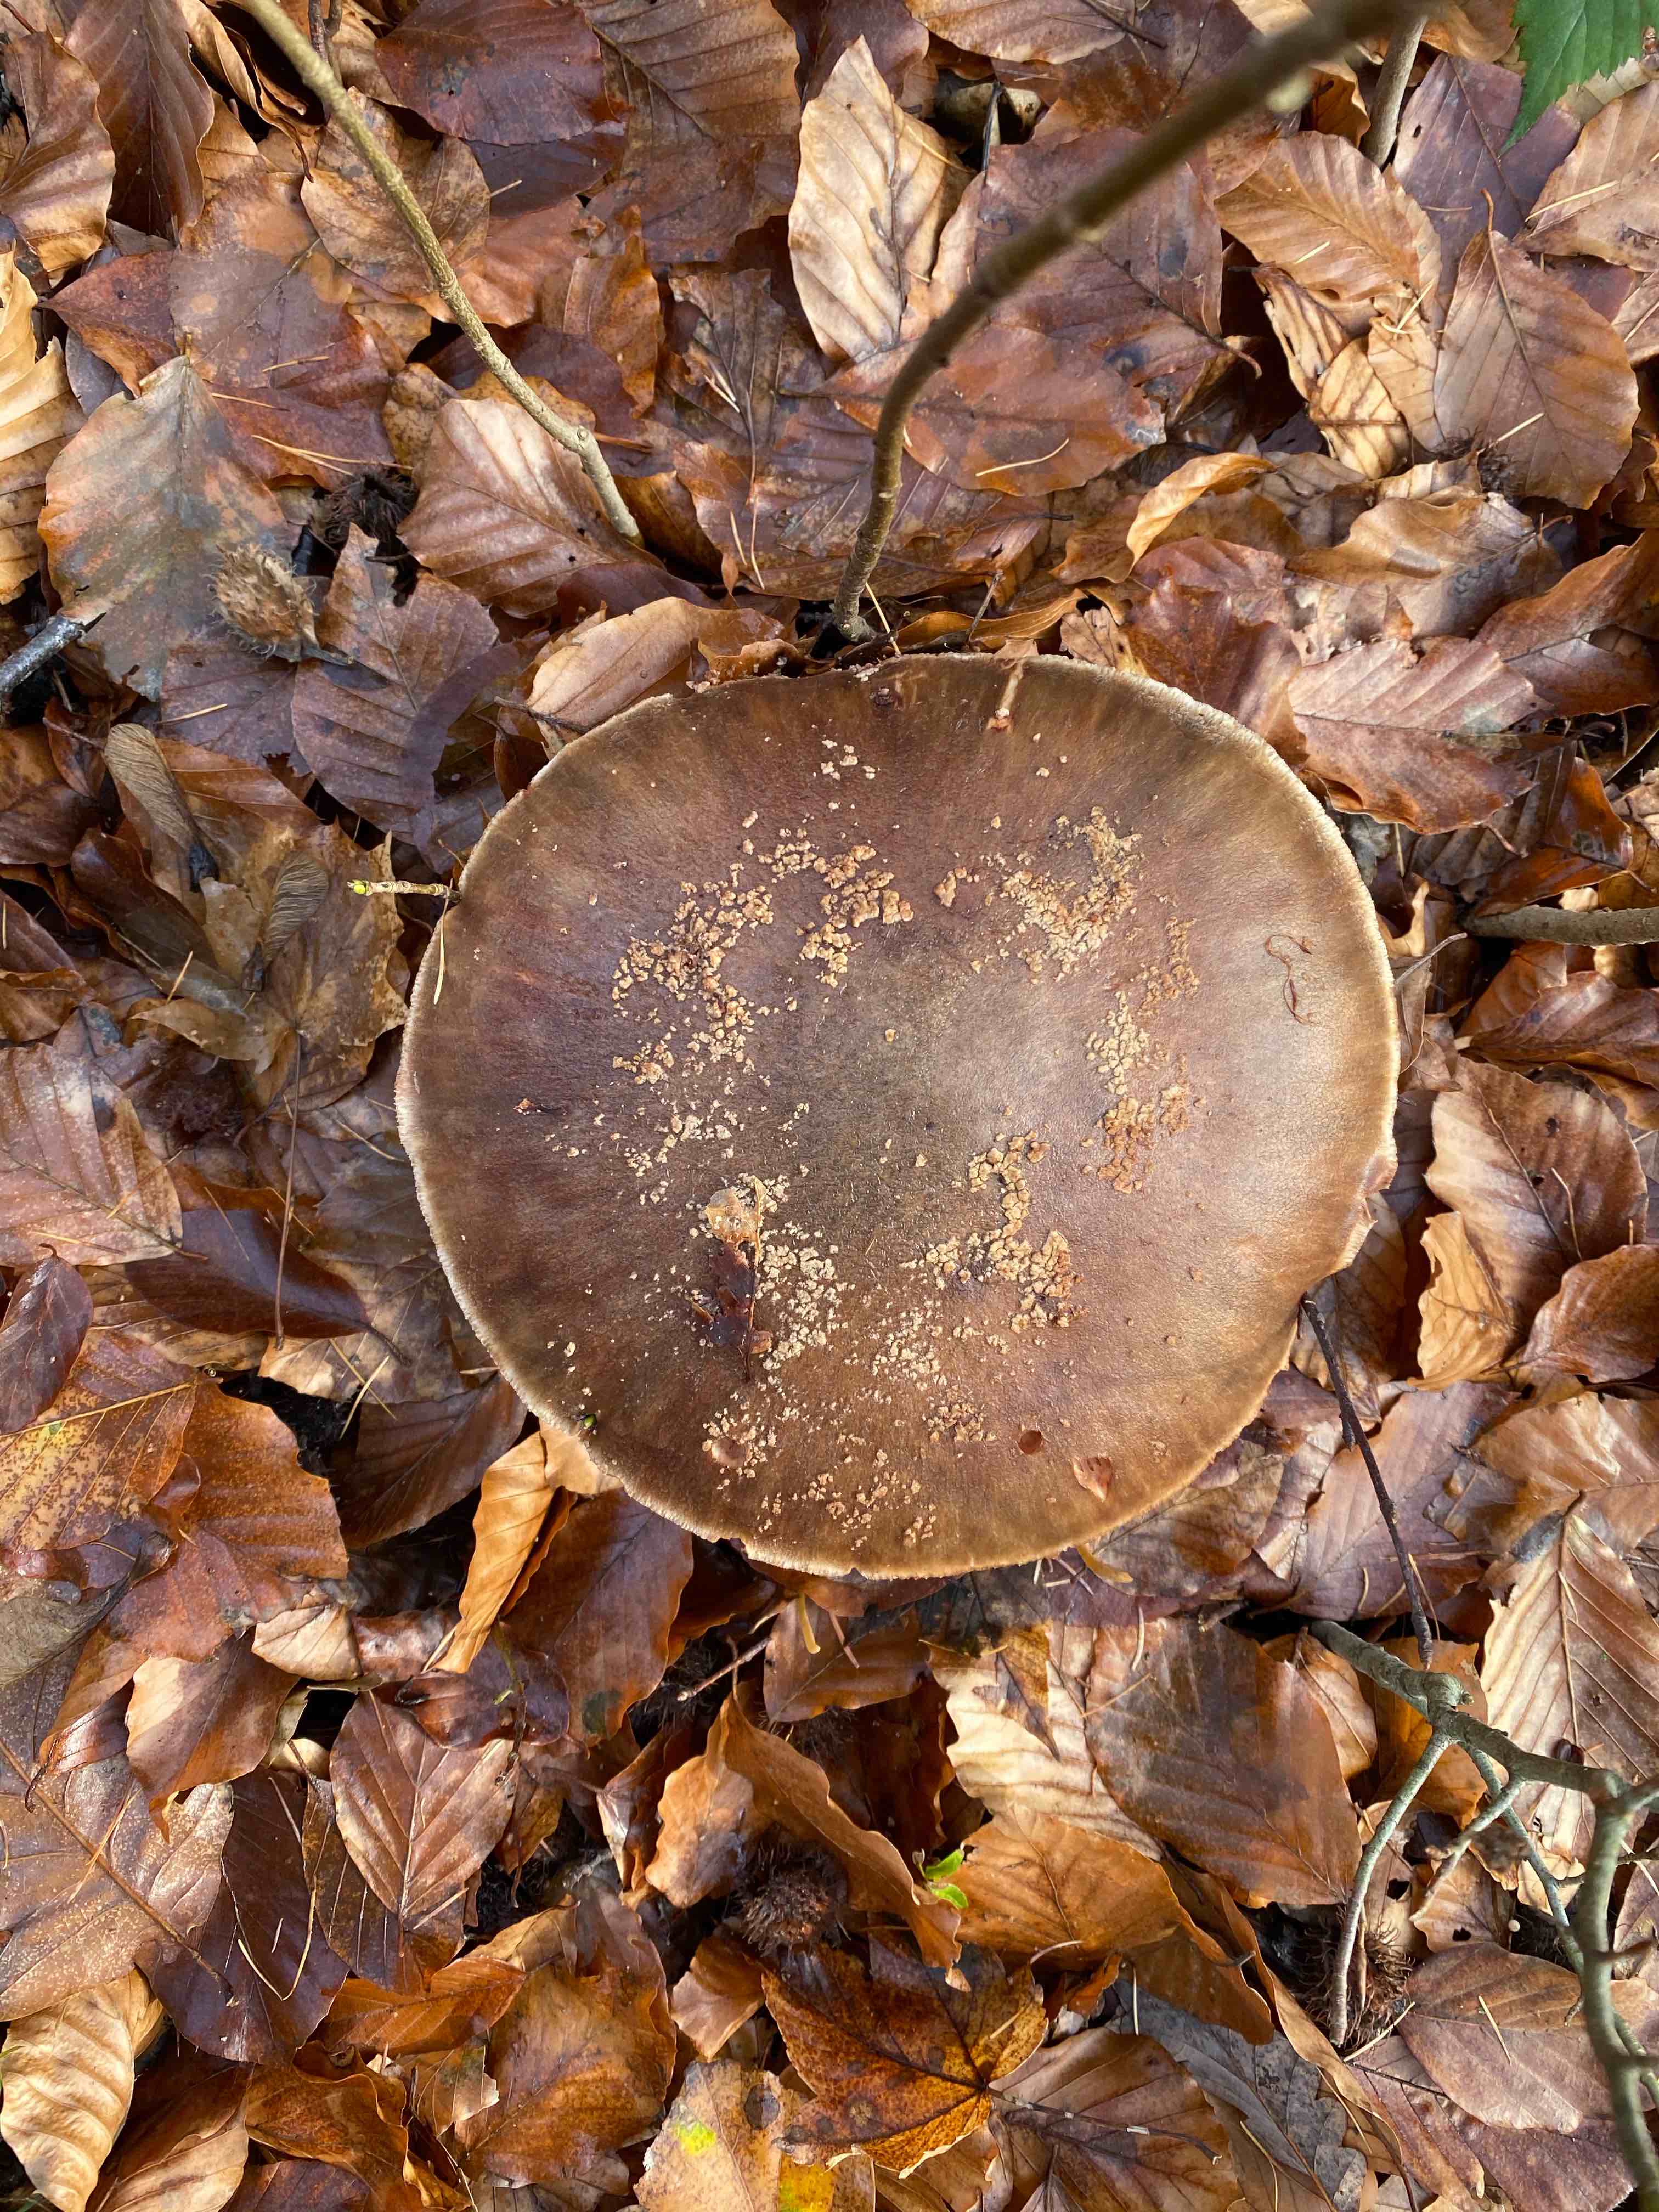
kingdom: Fungi
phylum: Basidiomycota
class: Agaricomycetes
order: Agaricales
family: Amanitaceae
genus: Amanita
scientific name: Amanita rubescens
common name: rødmende fluesvamp
